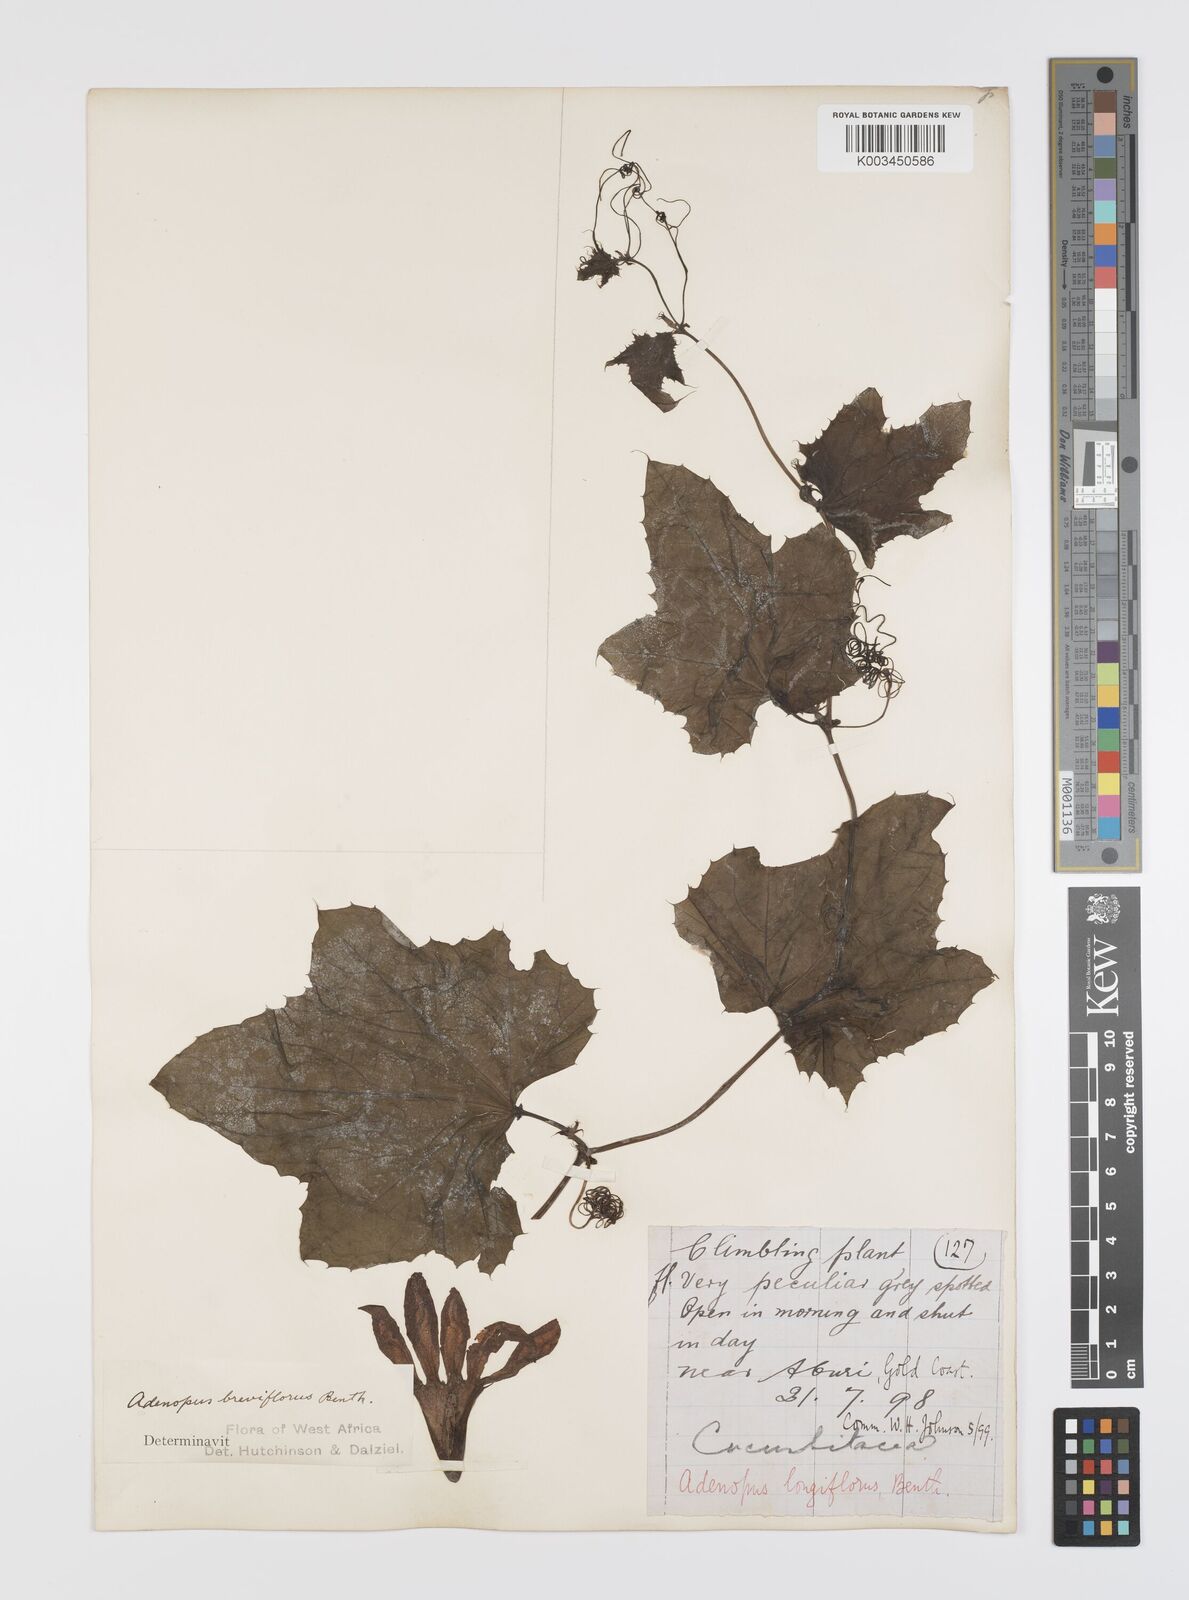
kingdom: Plantae
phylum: Tracheophyta
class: Magnoliopsida
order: Cucurbitales
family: Cucurbitaceae
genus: Lagenaria
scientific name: Lagenaria breviflora
